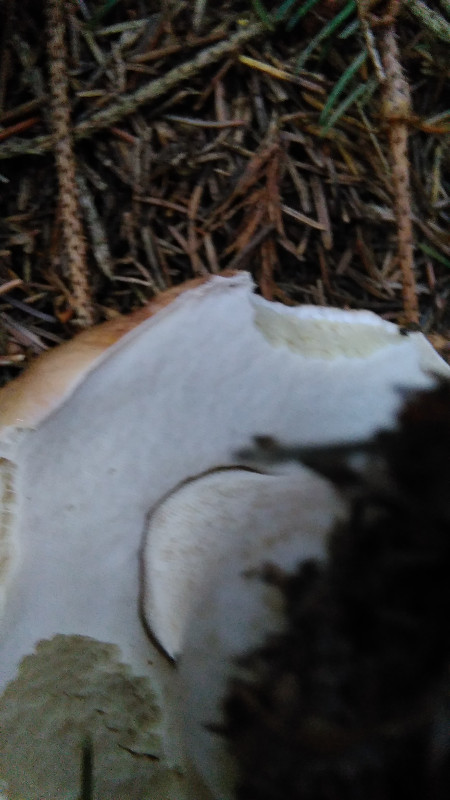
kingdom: Fungi
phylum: Basidiomycota
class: Agaricomycetes
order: Boletales
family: Boletaceae
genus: Boletus
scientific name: Boletus edulis
